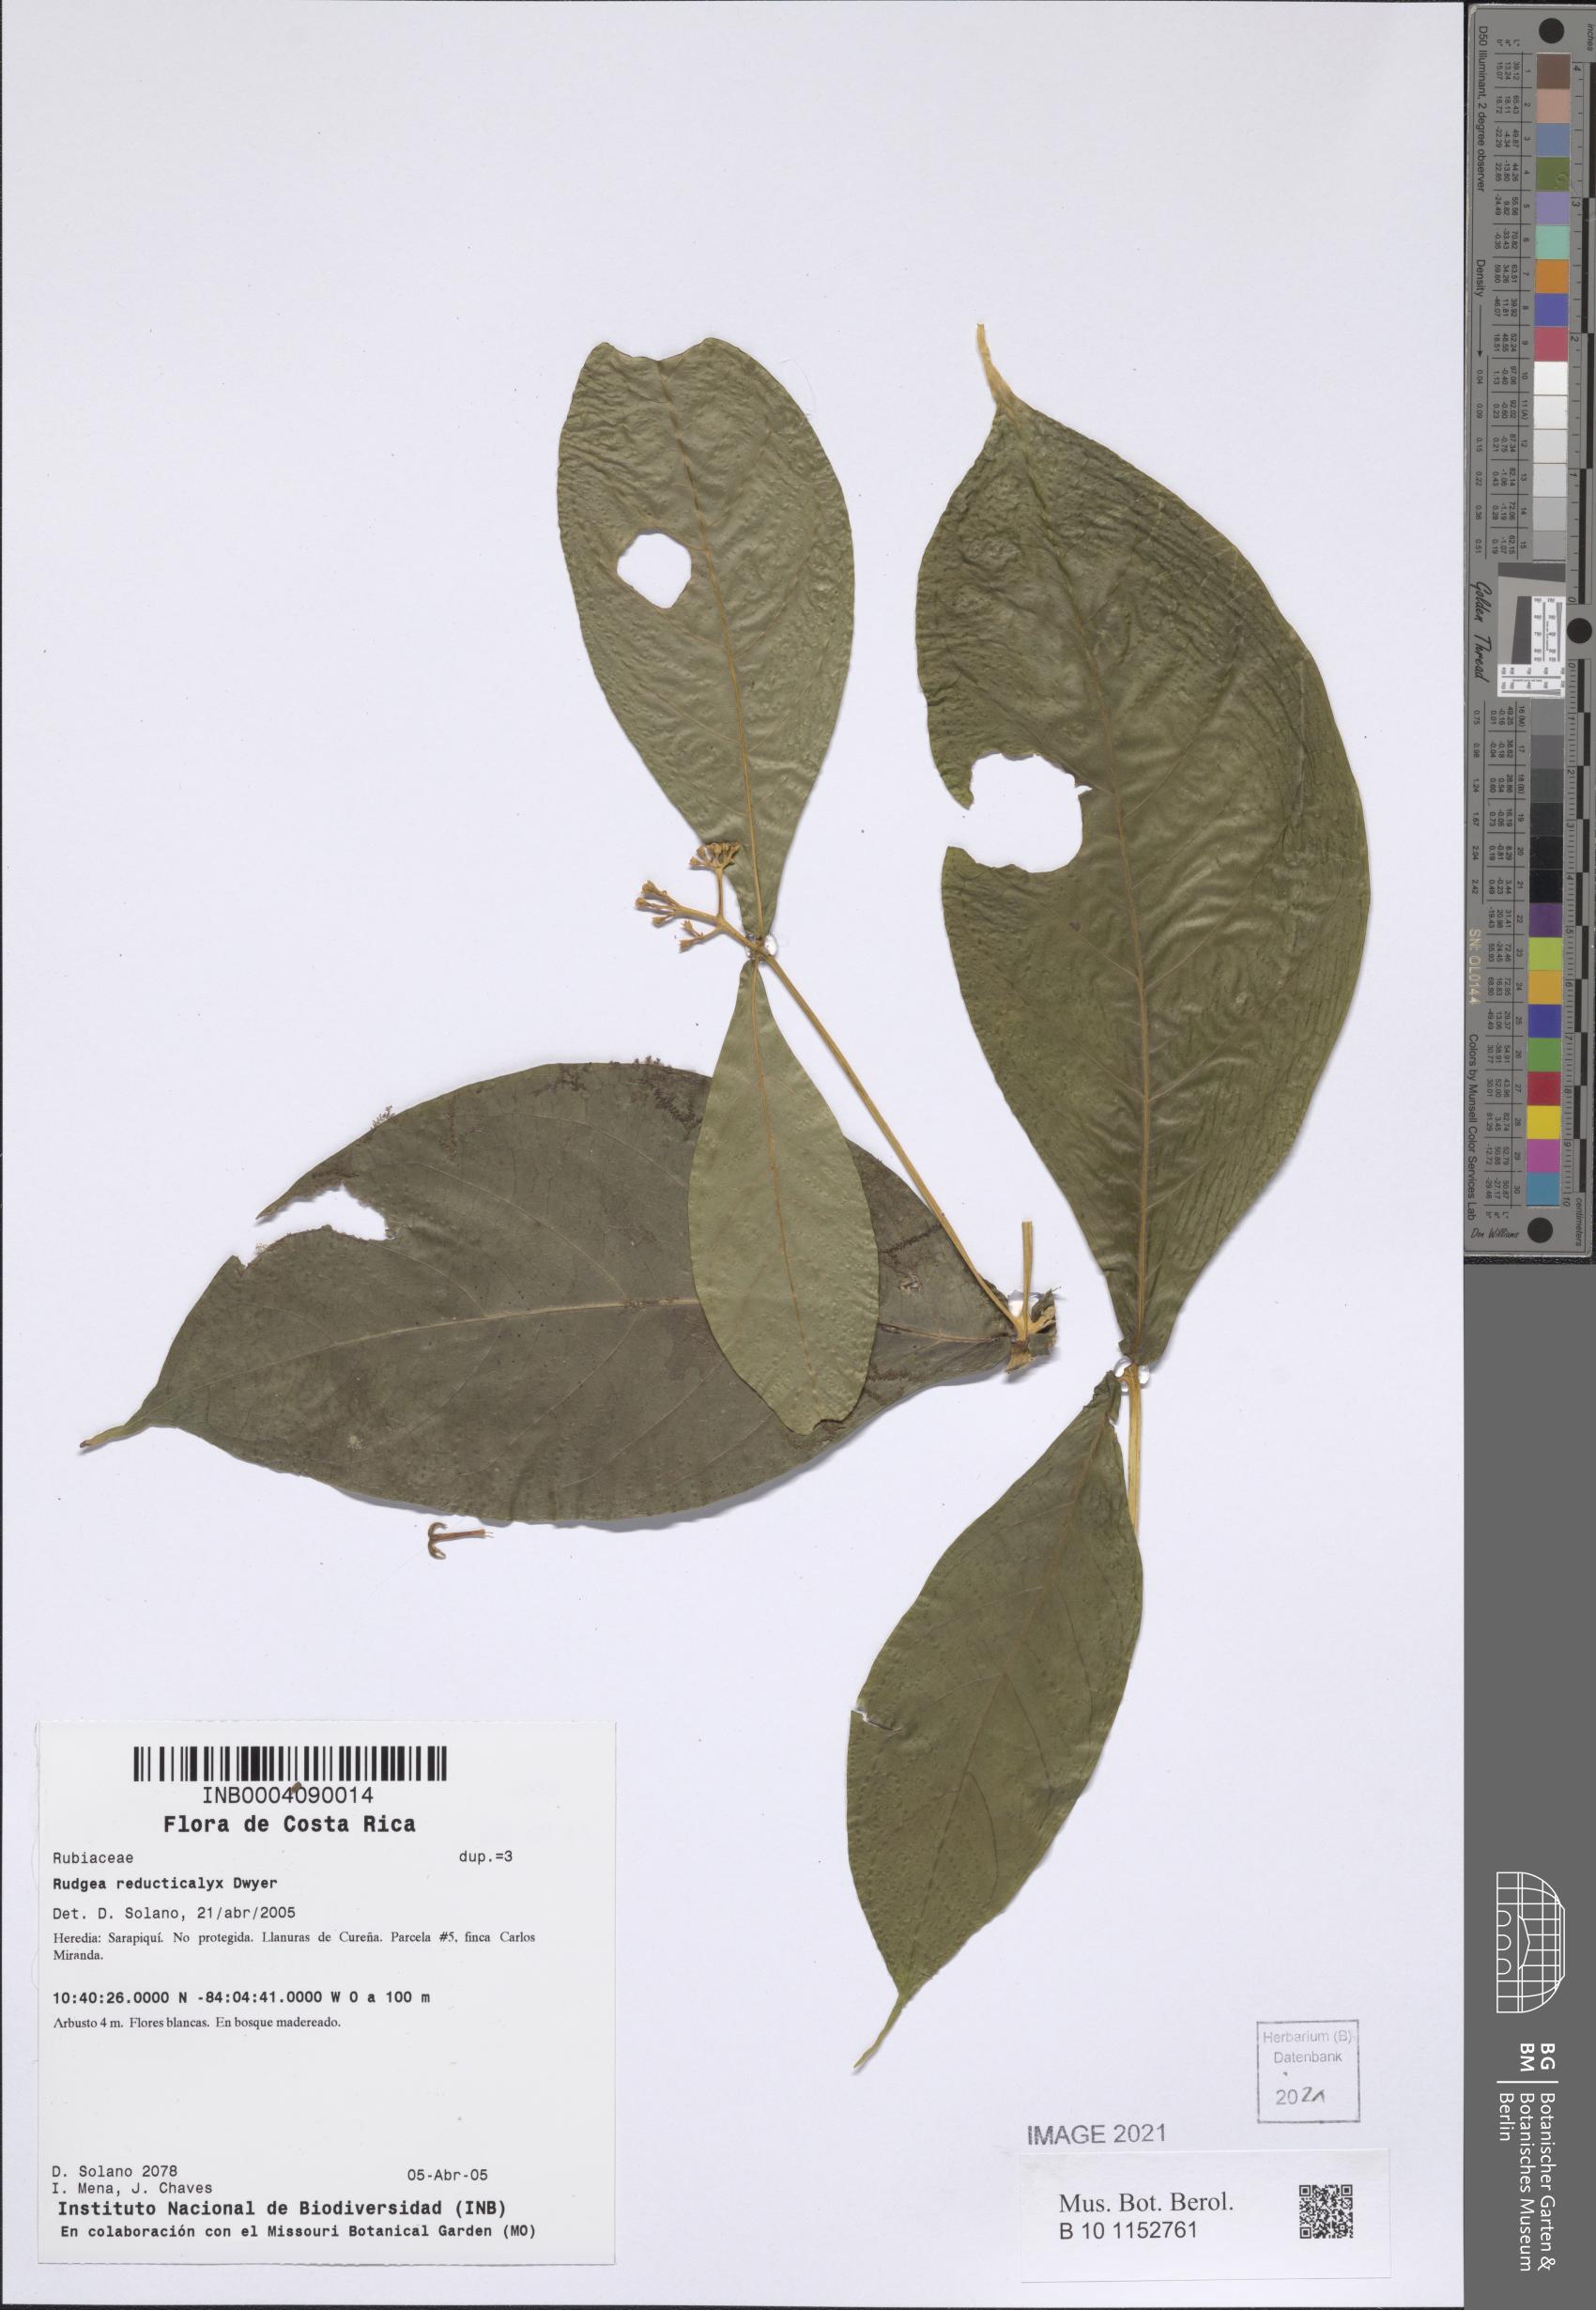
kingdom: Plantae
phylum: Tracheophyta
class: Magnoliopsida
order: Gentianales
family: Rubiaceae
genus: Coussarea
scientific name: Coussarea loftonii
